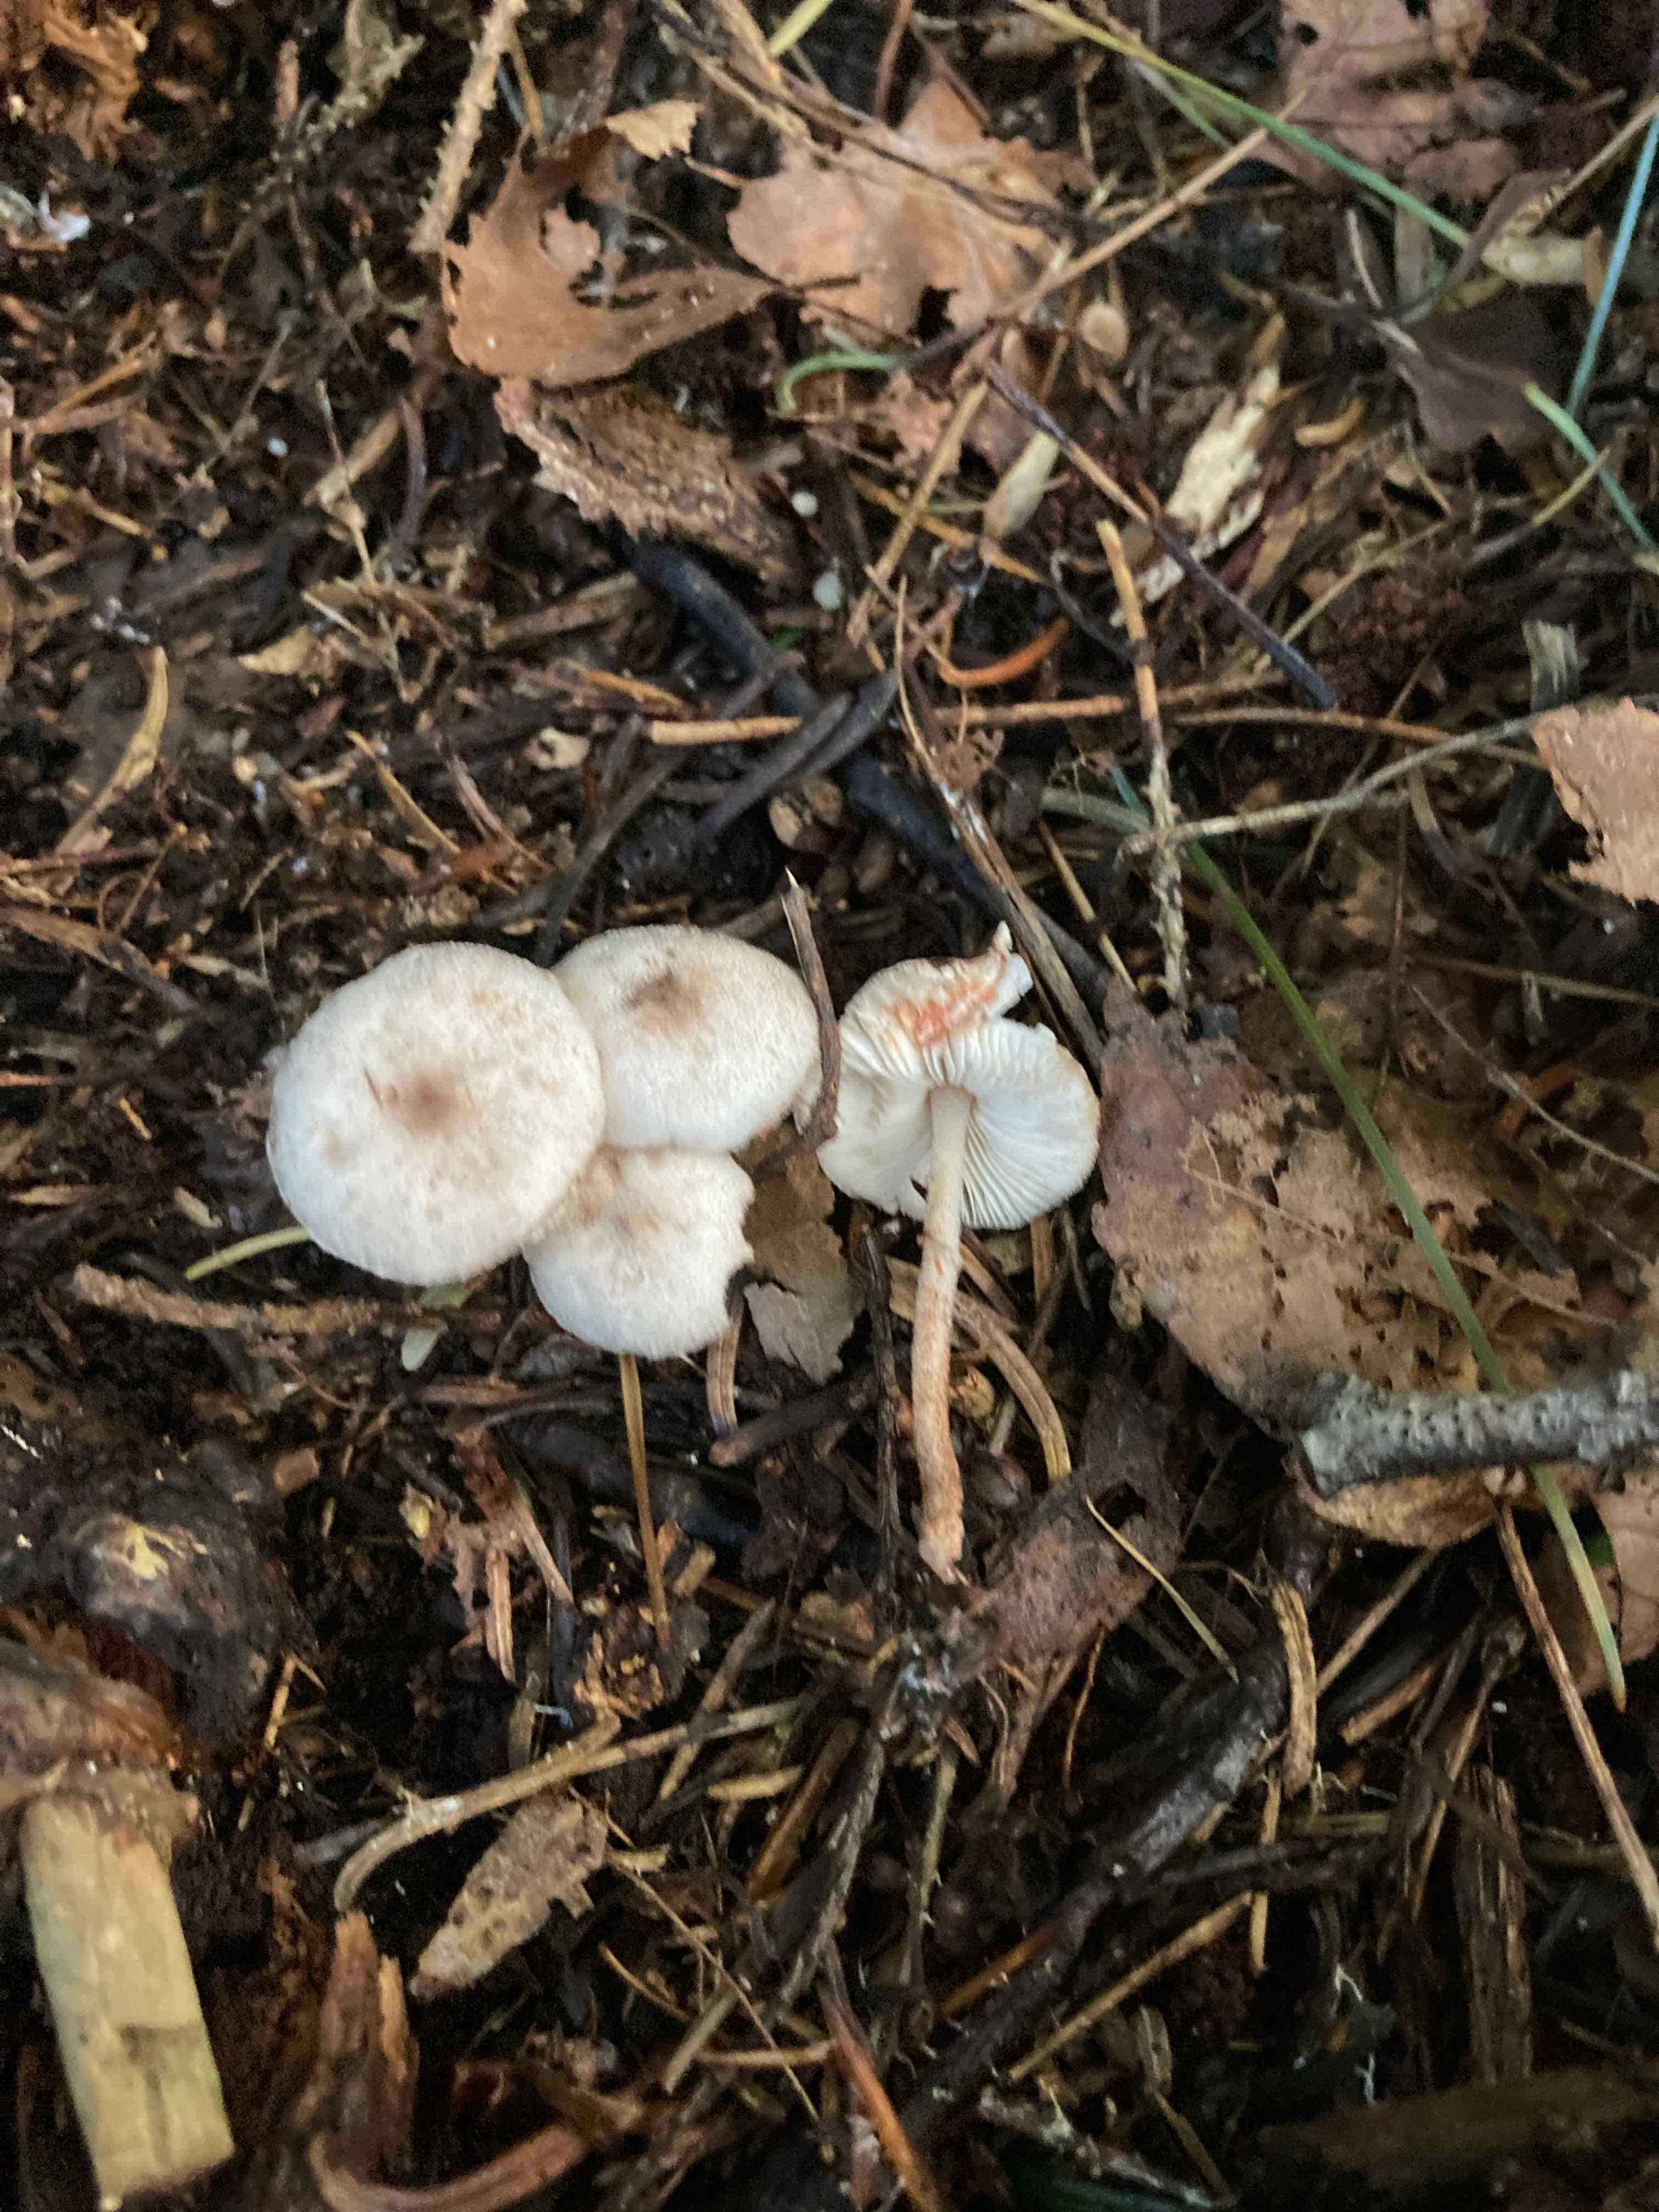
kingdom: Fungi
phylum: Basidiomycota
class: Agaricomycetes
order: Agaricales
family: Agaricaceae
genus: Leucoagaricus
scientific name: Leucoagaricus georginae
